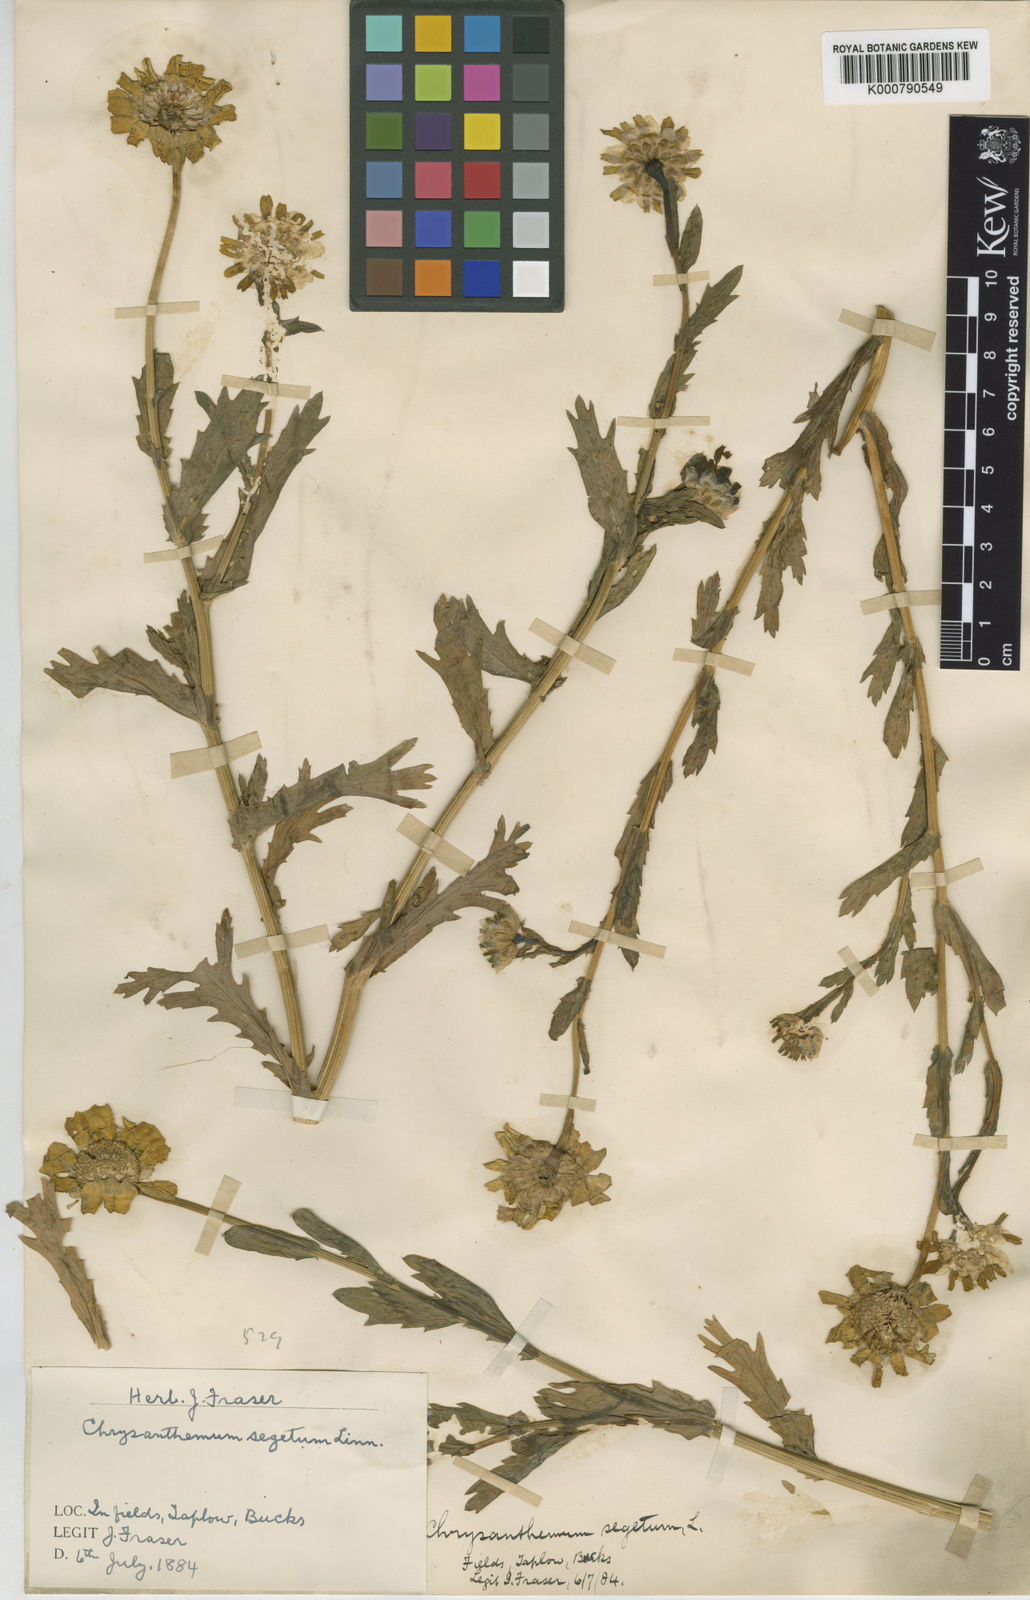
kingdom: Plantae
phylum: Tracheophyta
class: Magnoliopsida
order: Asterales
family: Asteraceae
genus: Glebionis
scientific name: Glebionis
